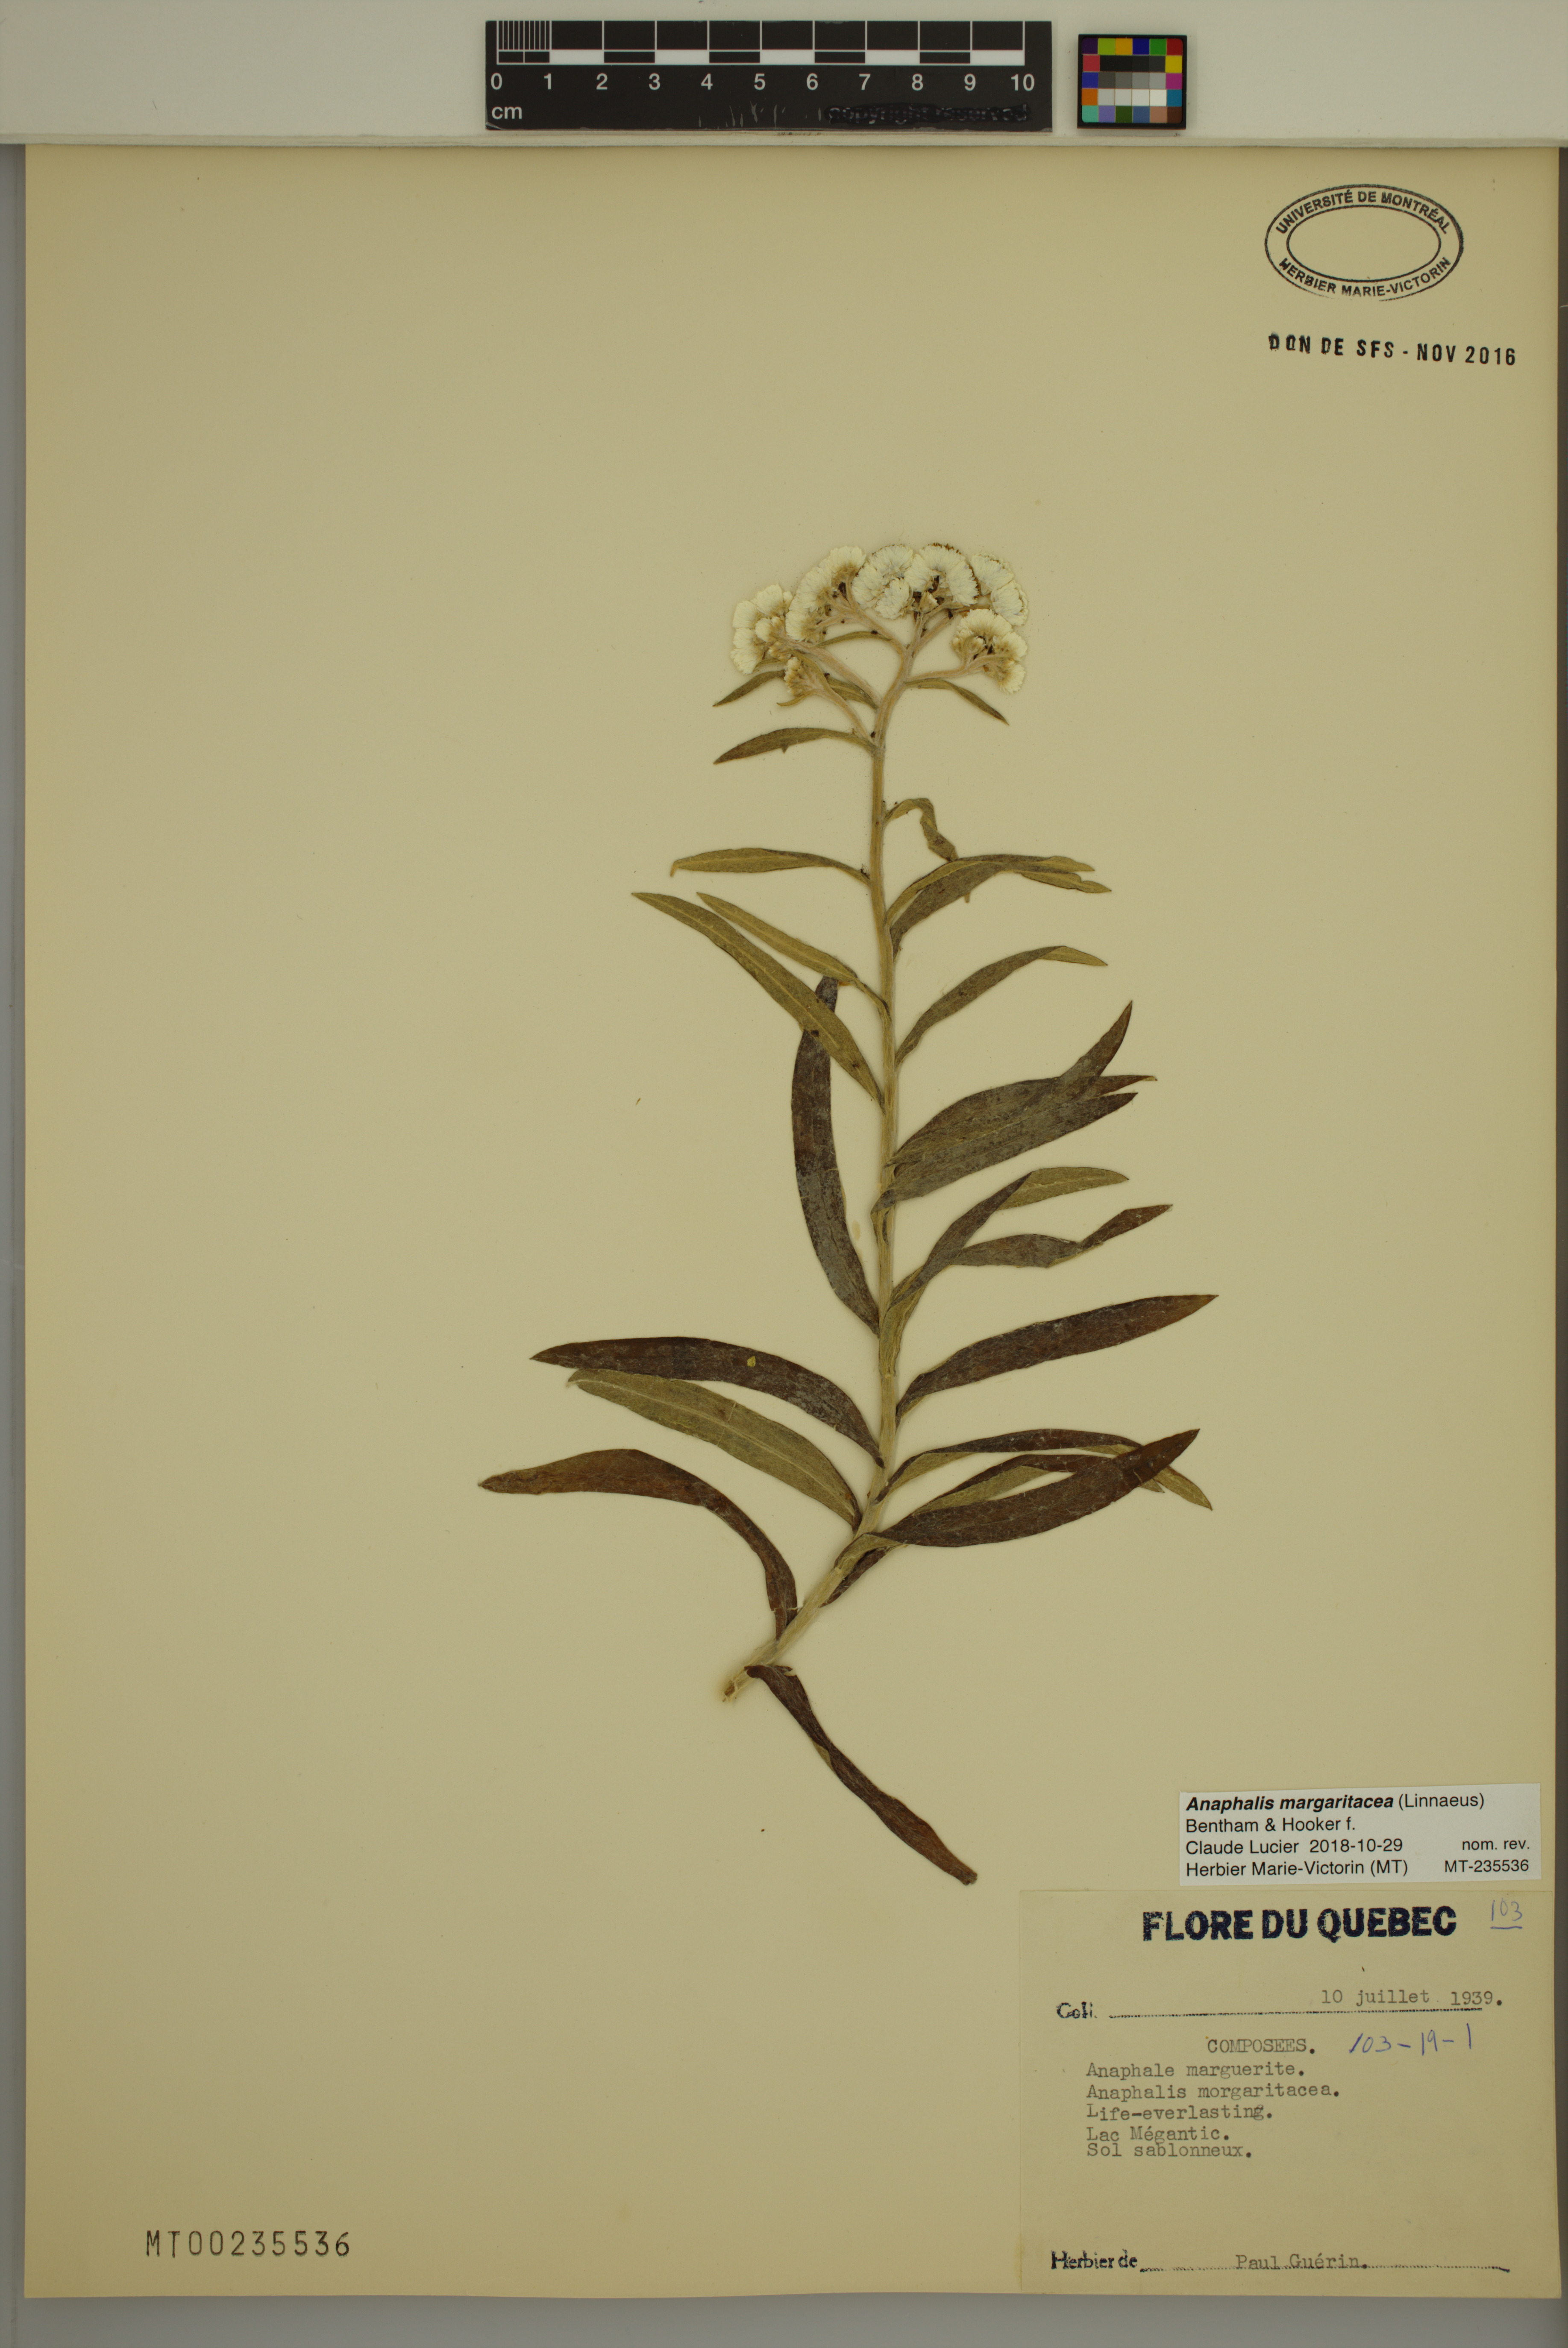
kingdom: Plantae
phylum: Tracheophyta
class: Magnoliopsida
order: Asterales
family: Asteraceae
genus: Anaphalis
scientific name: Anaphalis margaritacea
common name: Pearly everlasting
